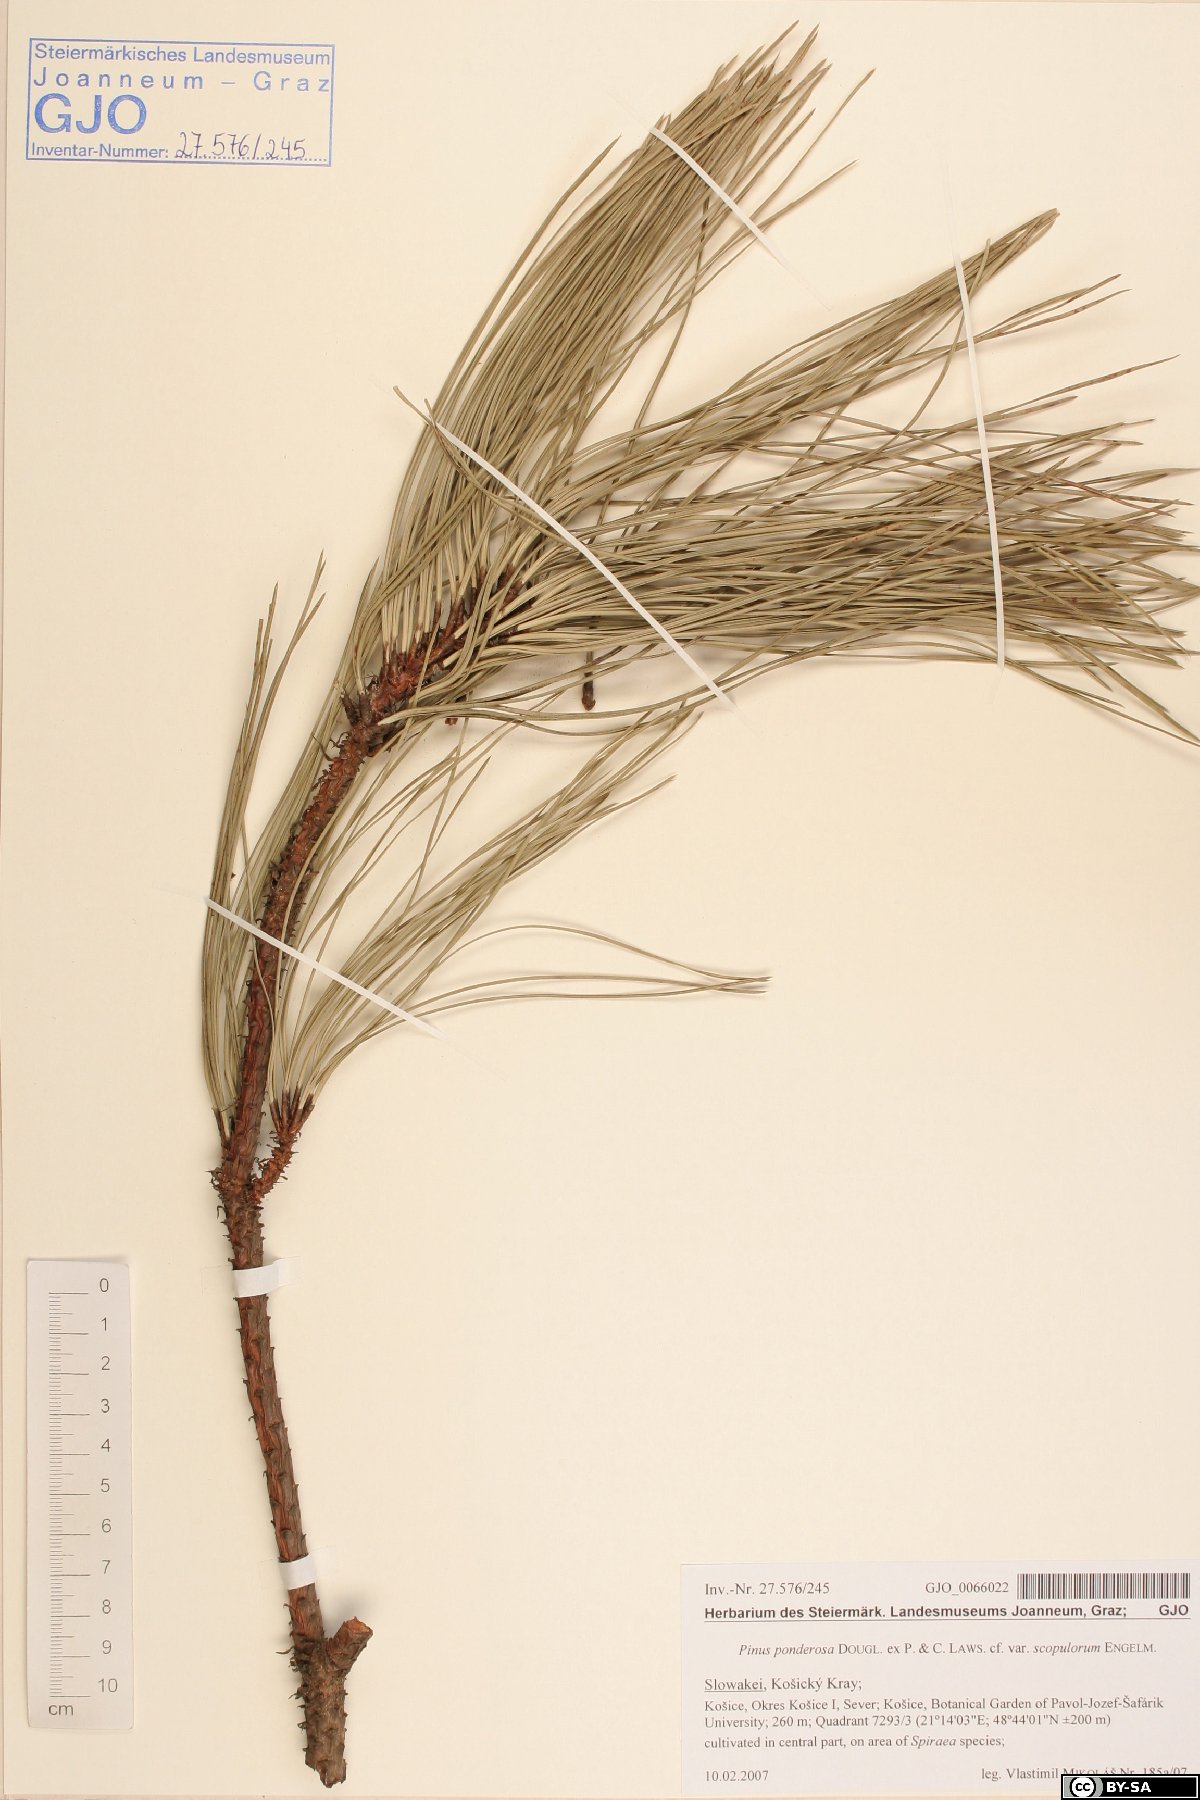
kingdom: Plantae
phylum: Tracheophyta
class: Pinopsida
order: Pinales
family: Pinaceae
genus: Pinus
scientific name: Pinus ponderosa
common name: Western yellow-pine
